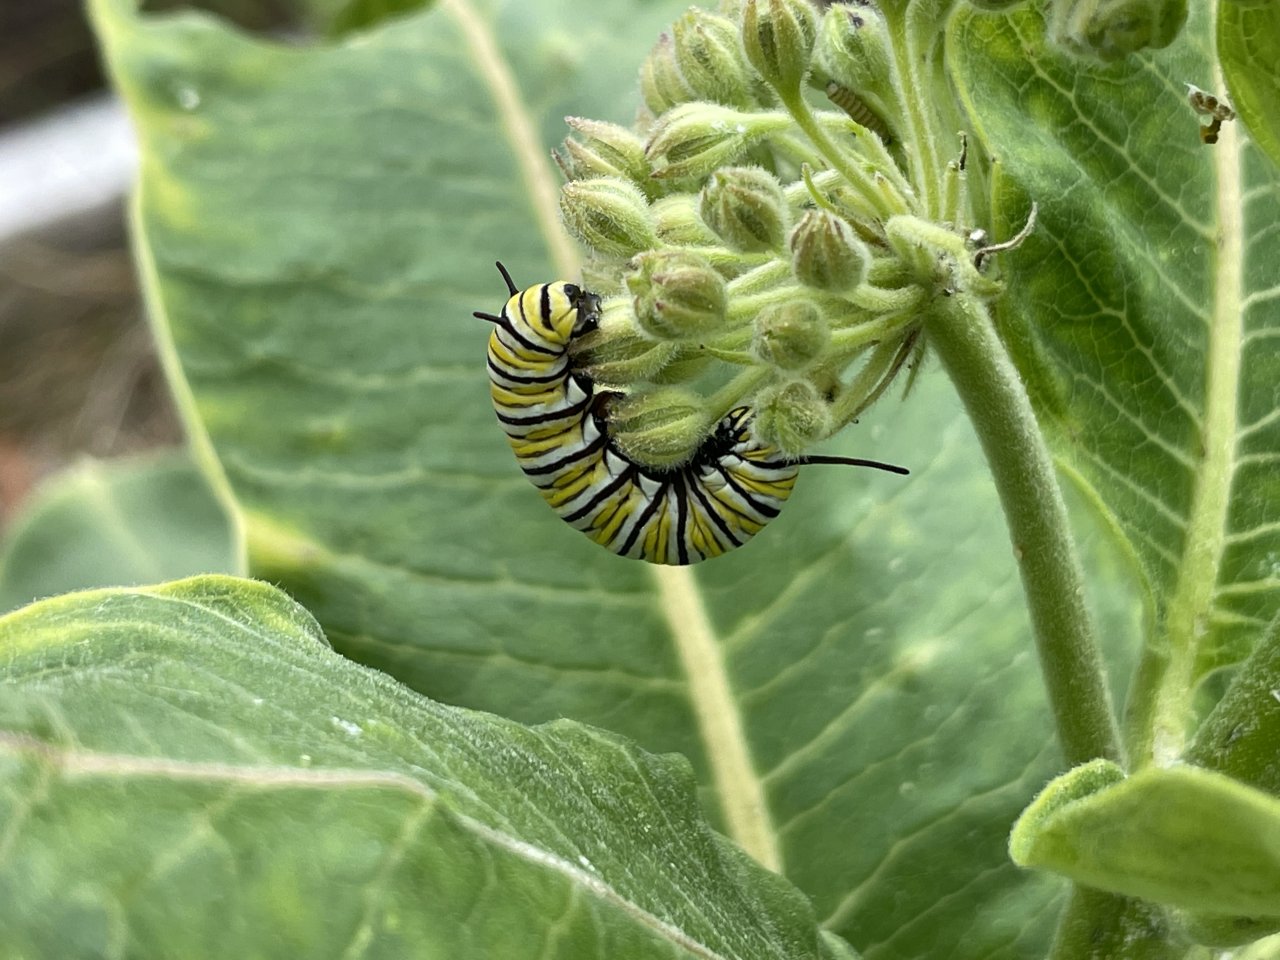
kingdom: Animalia
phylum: Arthropoda
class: Insecta
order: Lepidoptera
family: Nymphalidae
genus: Danaus
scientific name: Danaus plexippus
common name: Monarch
